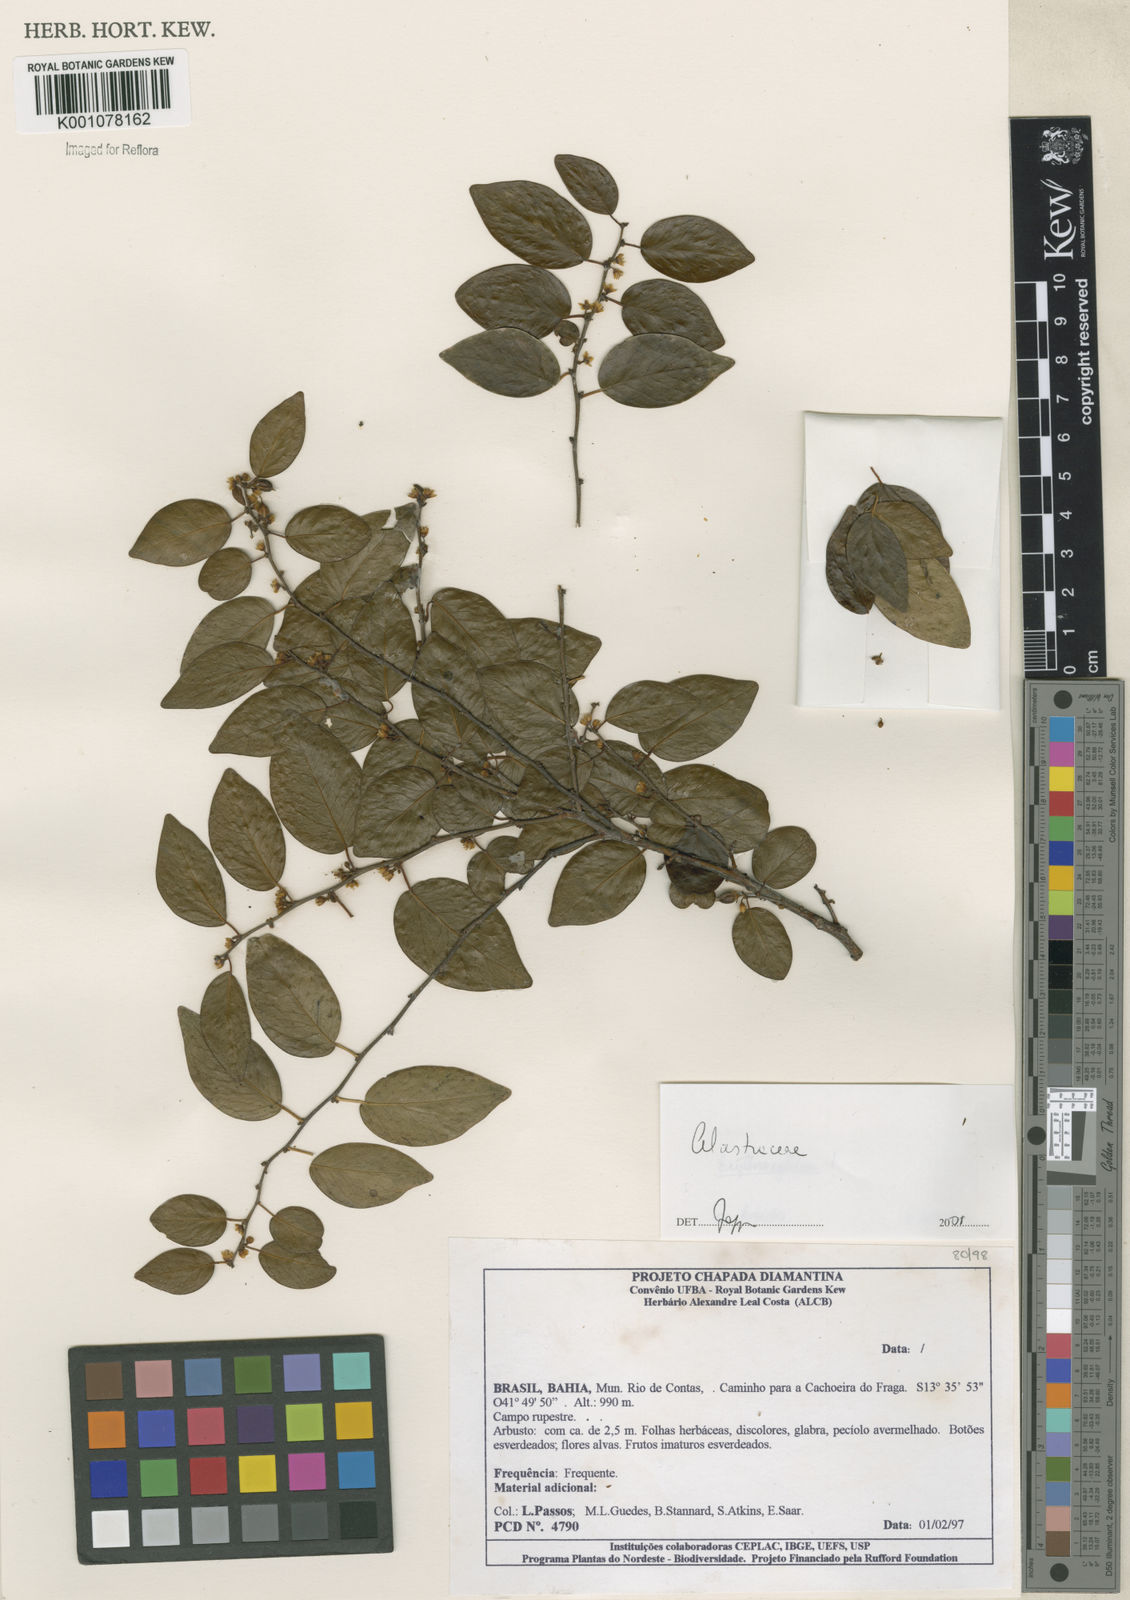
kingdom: Plantae
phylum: Tracheophyta
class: Magnoliopsida
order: Celastrales
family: Celastraceae
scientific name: Celastraceae
